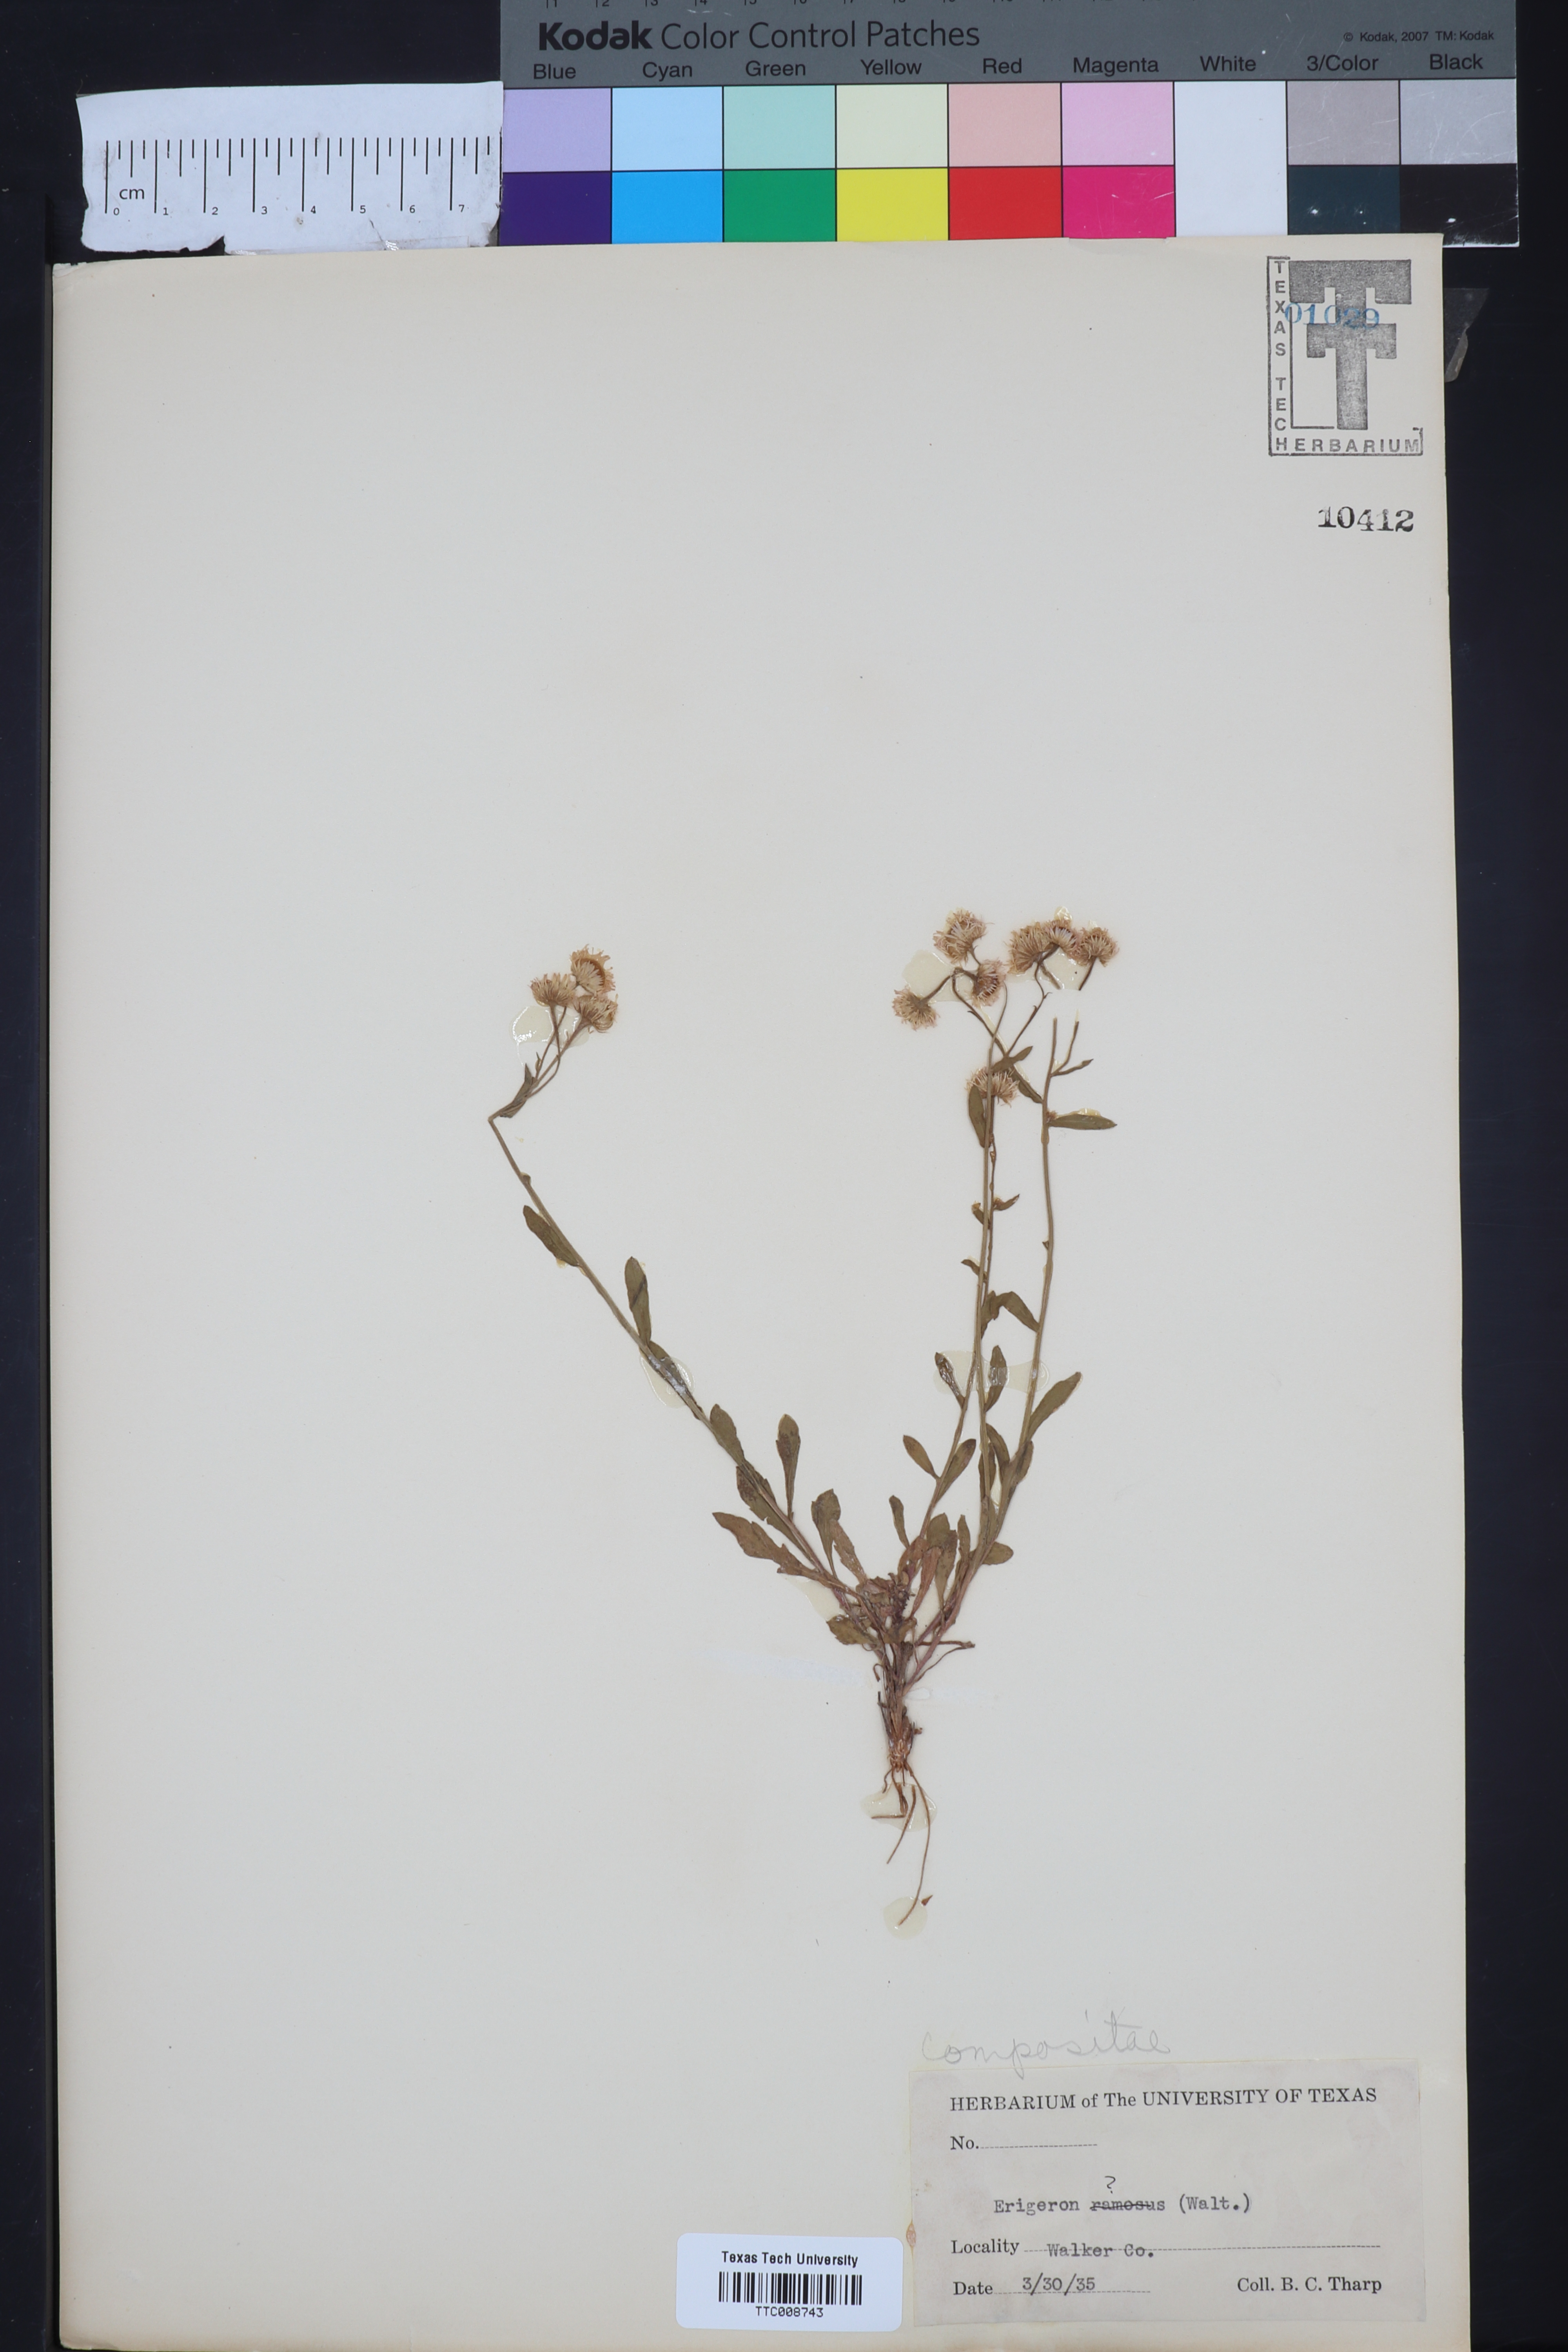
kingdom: Plantae
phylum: Tracheophyta
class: Magnoliopsida
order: Asterales
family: Asteraceae
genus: Erigeron
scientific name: Erigeron
